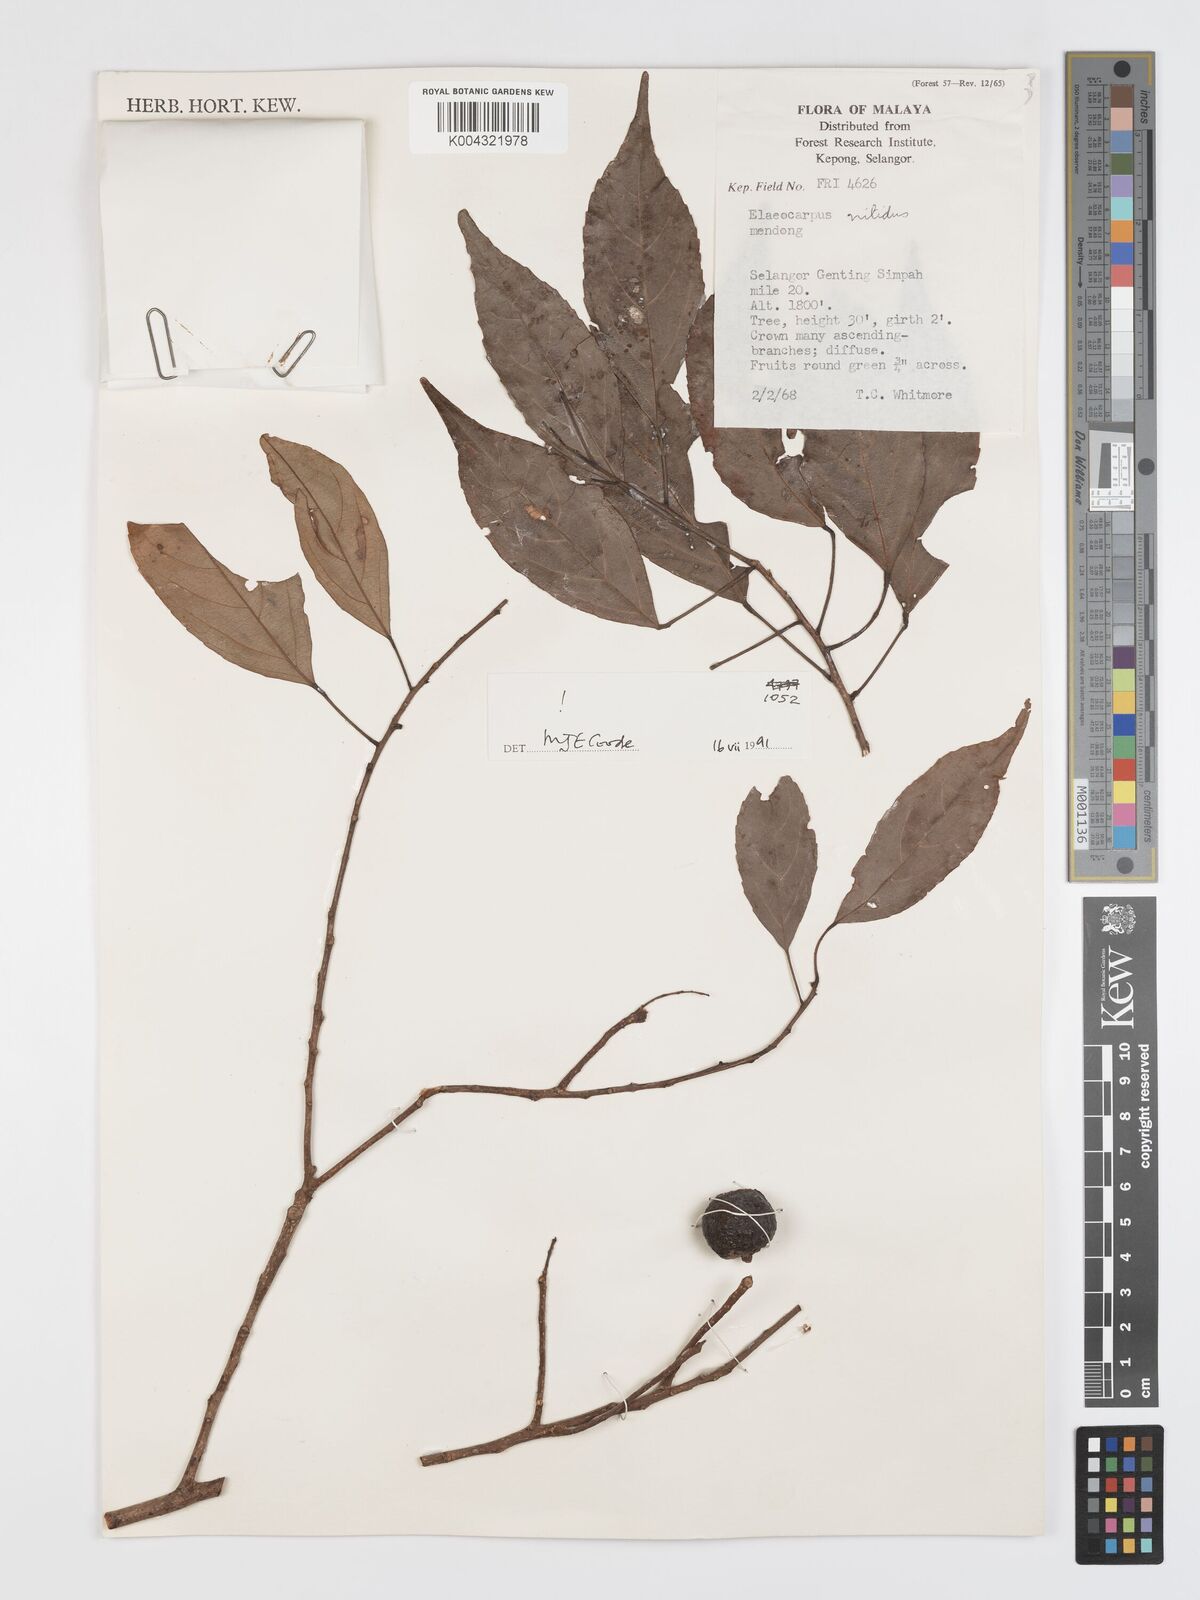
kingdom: Plantae
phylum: Tracheophyta
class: Magnoliopsida
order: Oxalidales
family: Elaeocarpaceae
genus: Elaeocarpus
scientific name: Elaeocarpus nitidus
